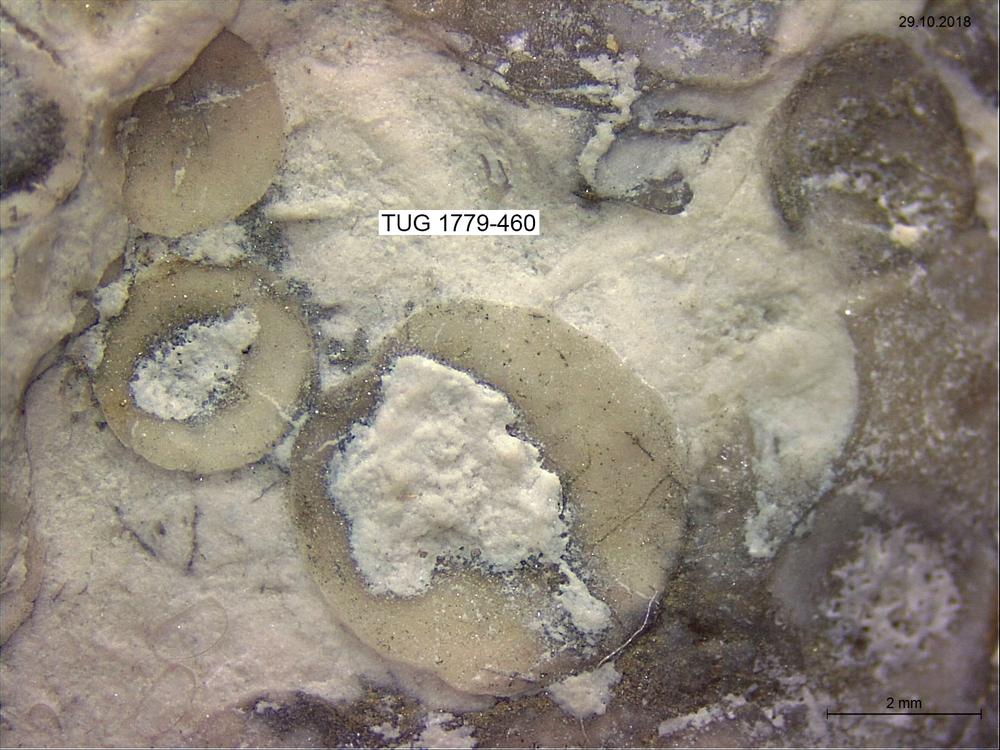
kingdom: Animalia
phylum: Brachiopoda
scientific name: Brachiopoda
